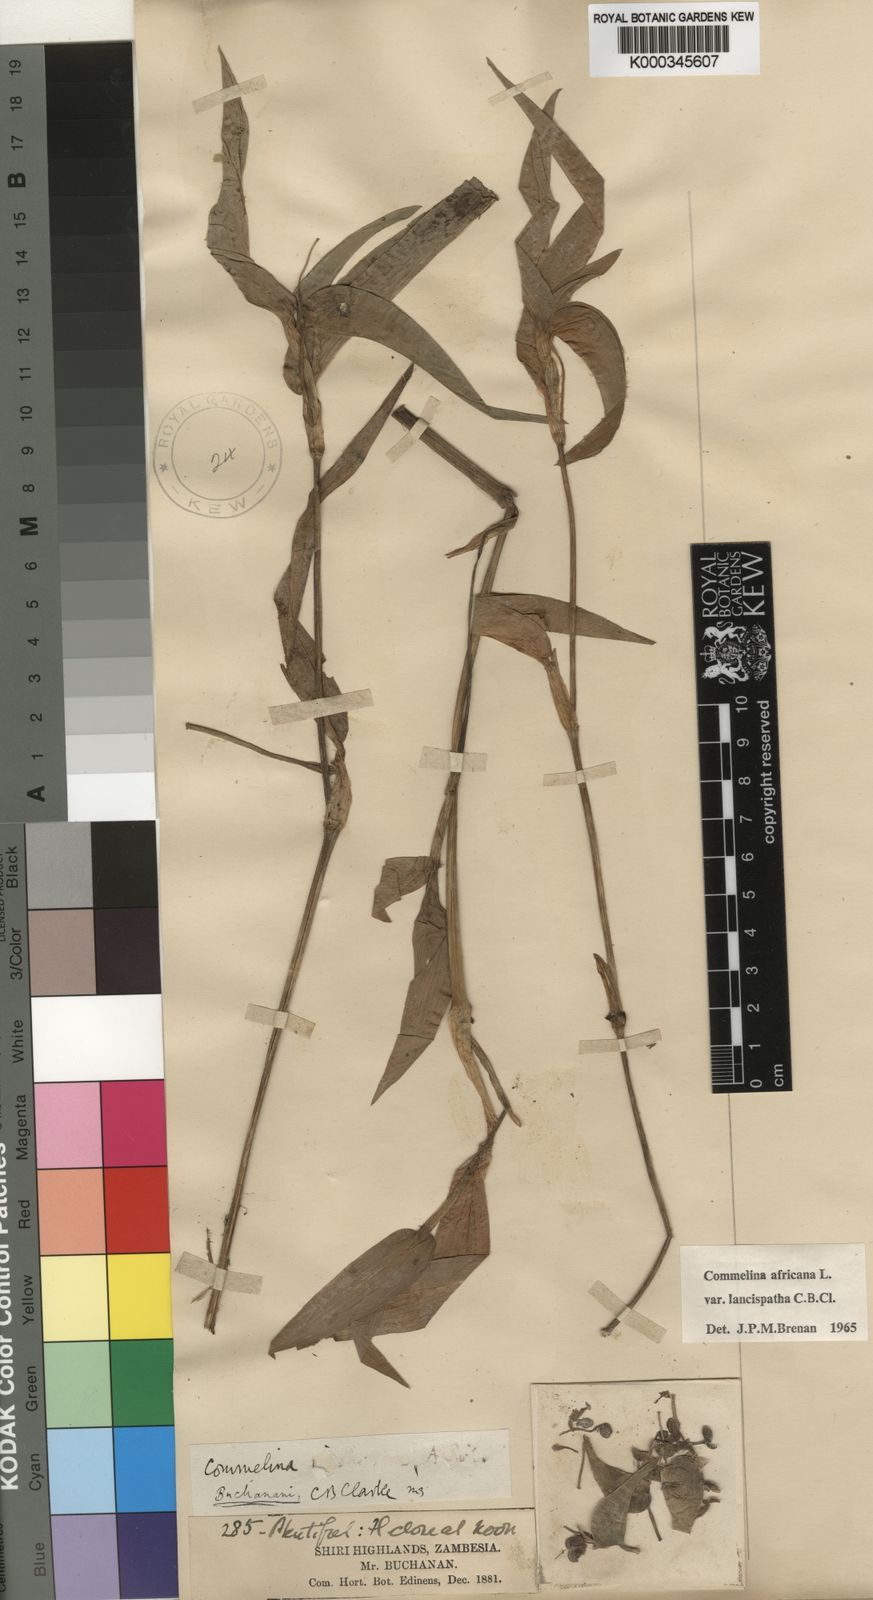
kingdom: Plantae
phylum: Tracheophyta
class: Liliopsida
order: Commelinales
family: Commelinaceae
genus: Commelina
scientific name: Commelina africana
